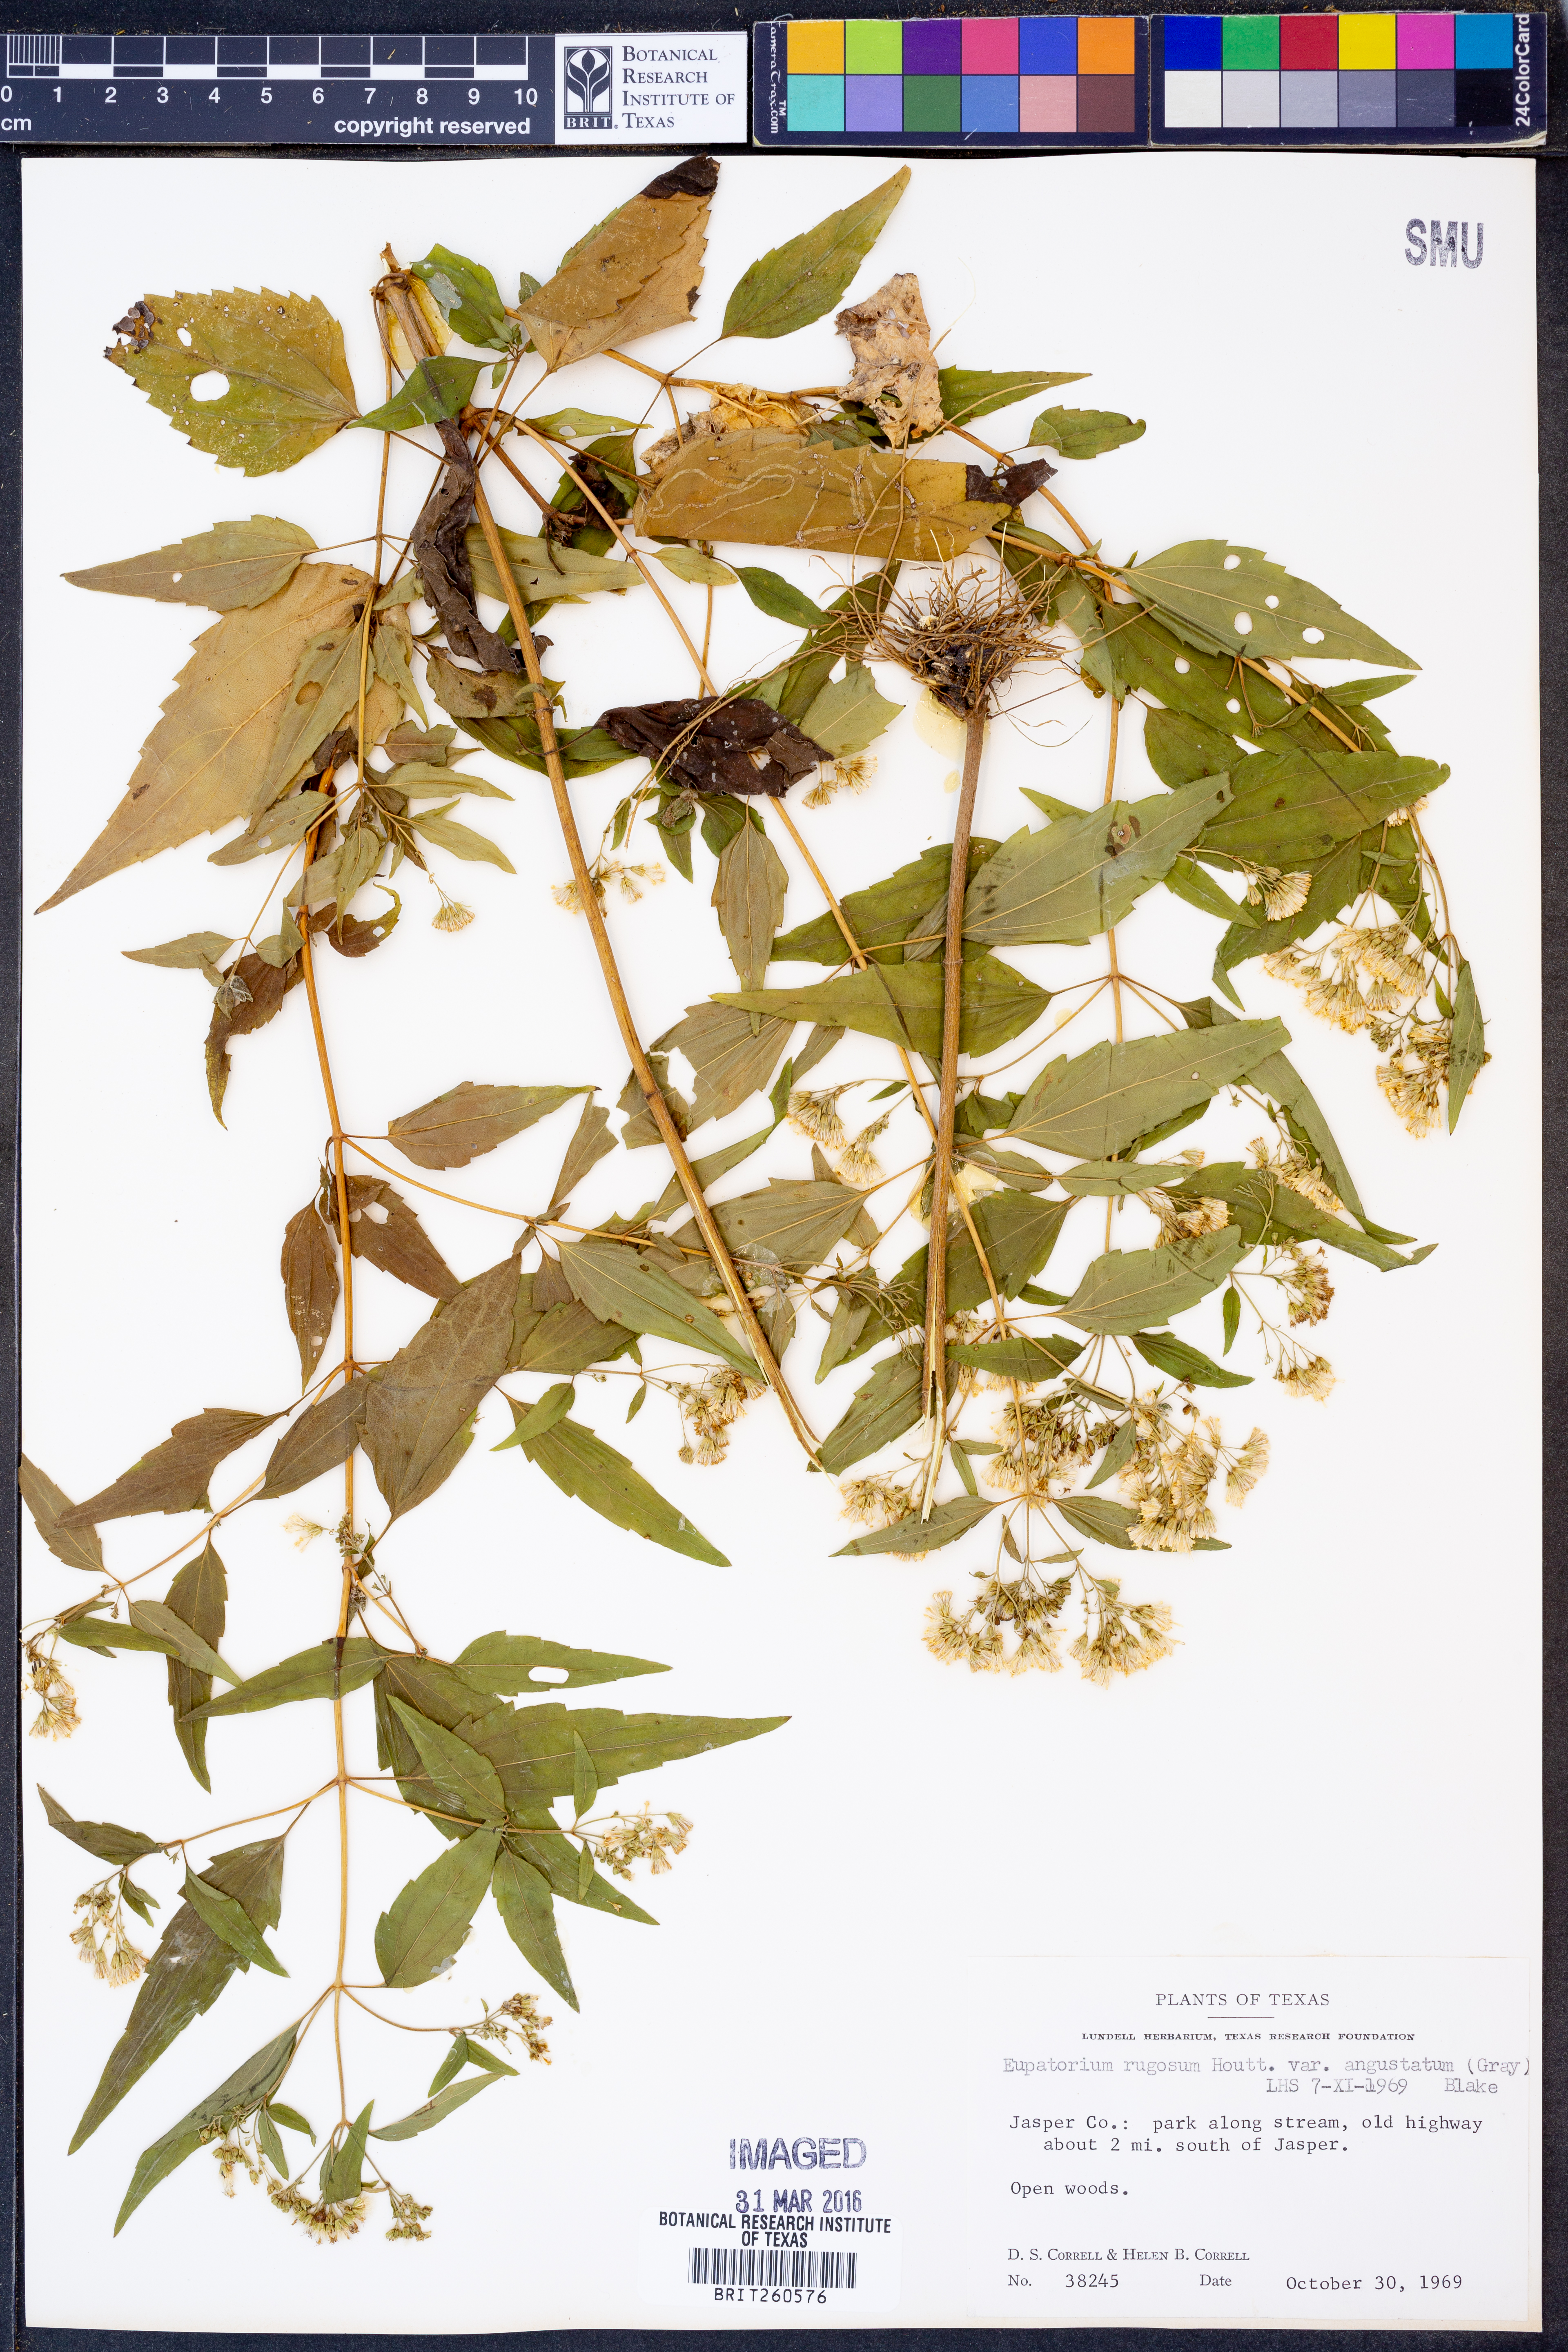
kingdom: Plantae
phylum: Tracheophyta
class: Magnoliopsida
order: Asterales
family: Asteraceae
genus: Ageratina
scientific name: Ageratina altissima
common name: White snakeroot
